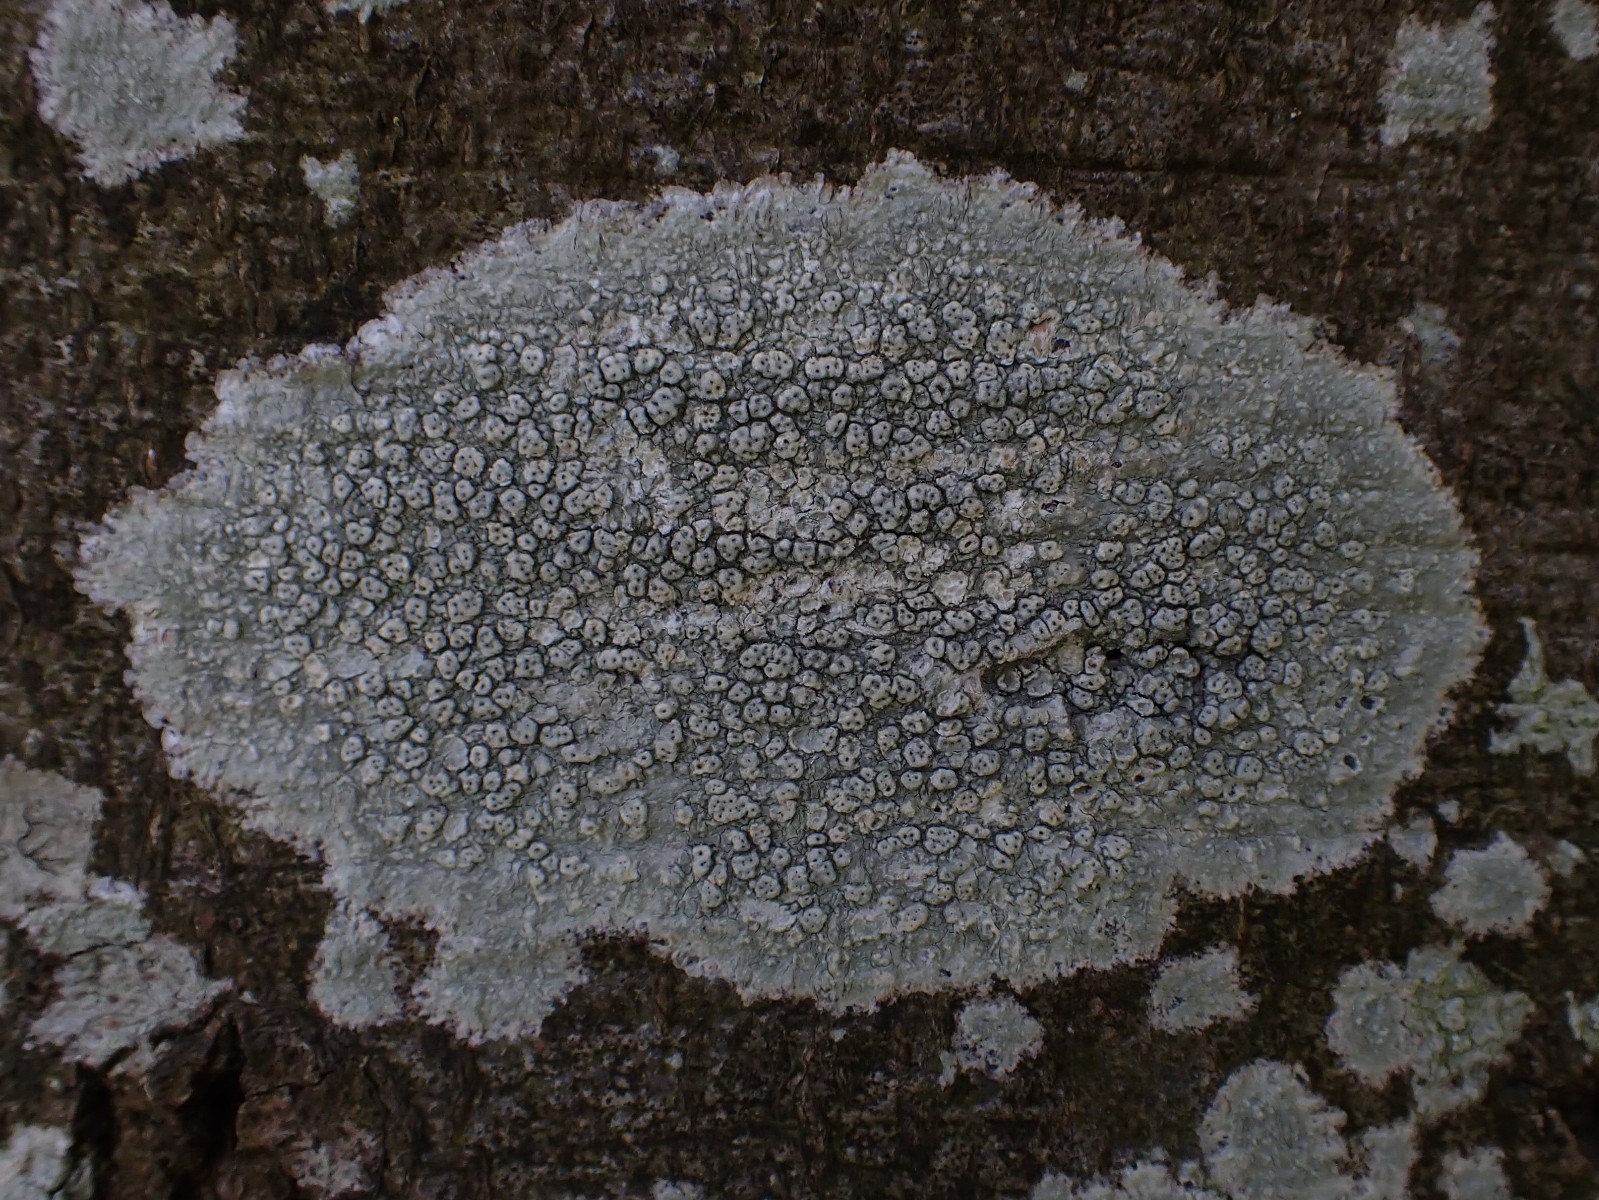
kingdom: Fungi
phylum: Ascomycota
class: Lecanoromycetes
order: Pertusariales
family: Pertusariaceae
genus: Pertusaria
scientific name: Pertusaria pertusa
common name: almindelig prikvortelav
